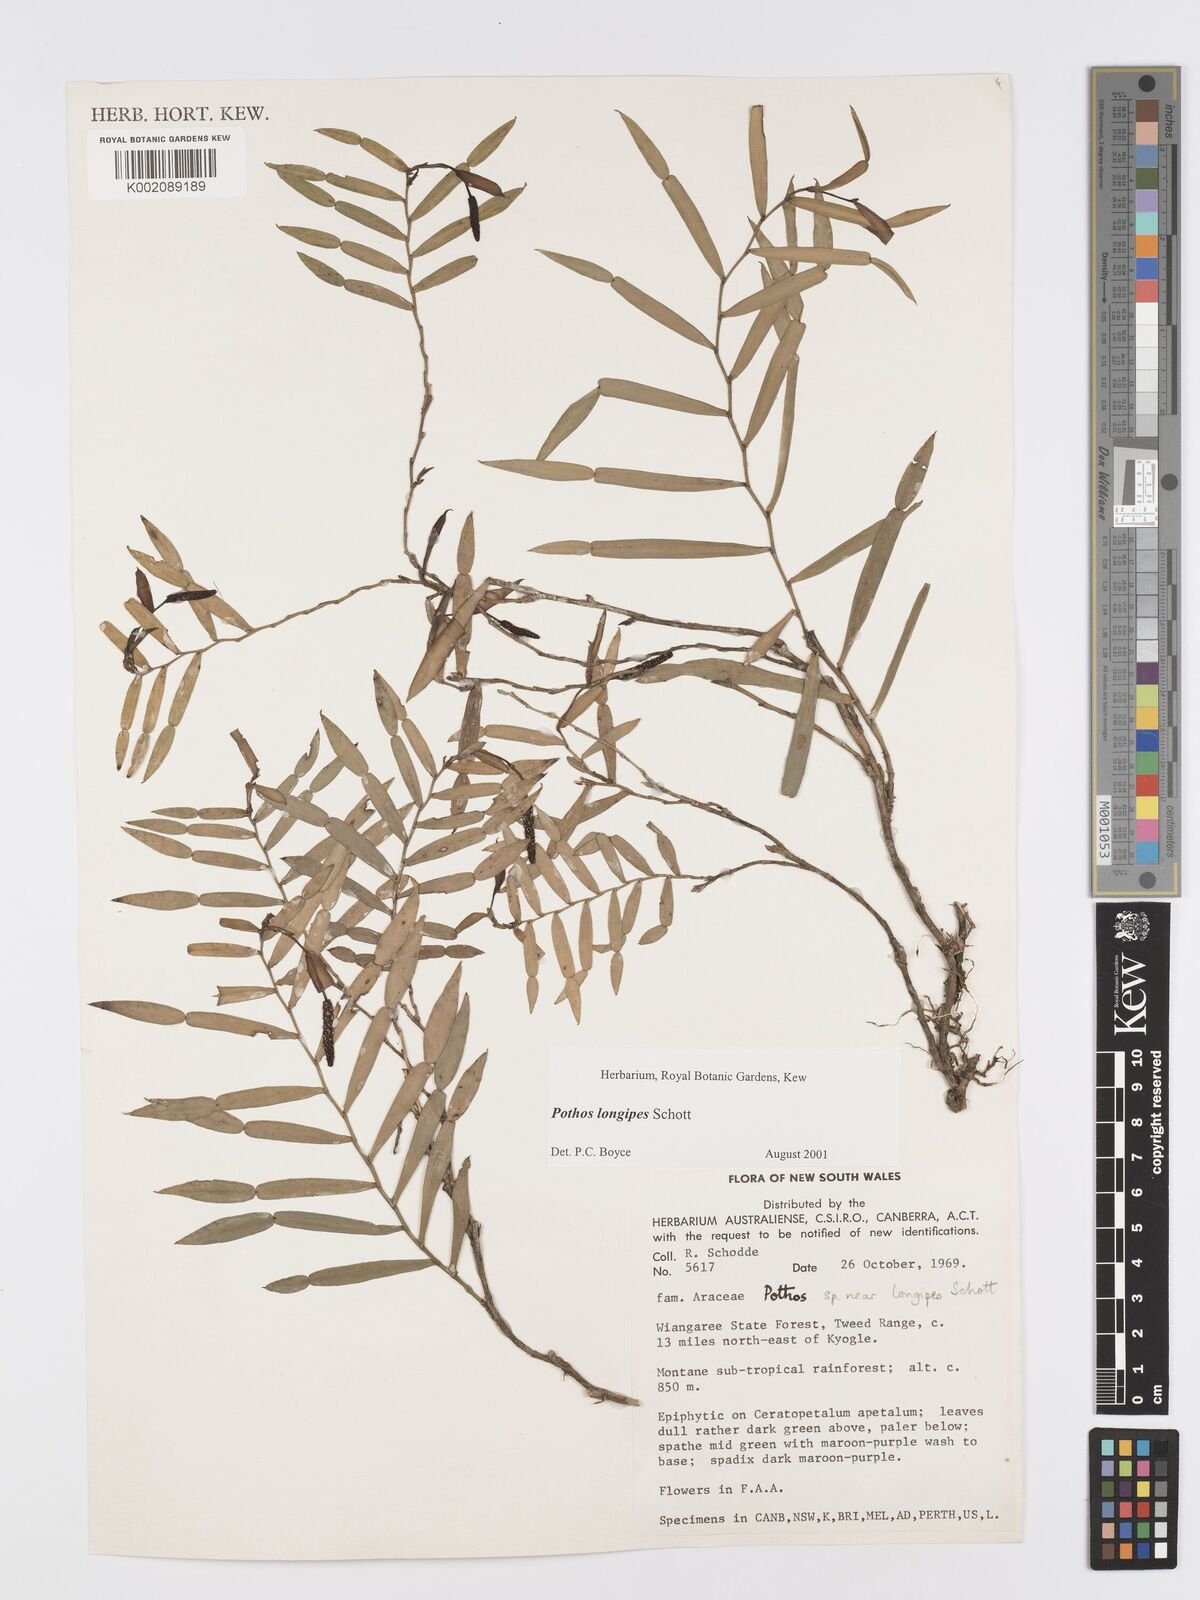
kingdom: Plantae
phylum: Tracheophyta
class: Liliopsida
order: Alismatales
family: Araceae
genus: Pothos
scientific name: Pothos longipes
